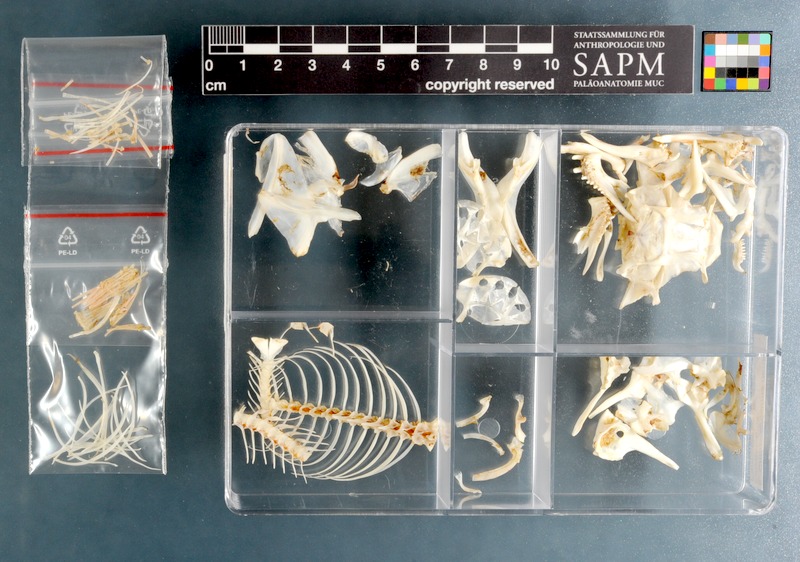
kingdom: Animalia
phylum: Chordata
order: Gobiesociformes
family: Gobiesocidae
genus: Chorisochismus
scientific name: Chorisochismus dentex
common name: Rocksucker
